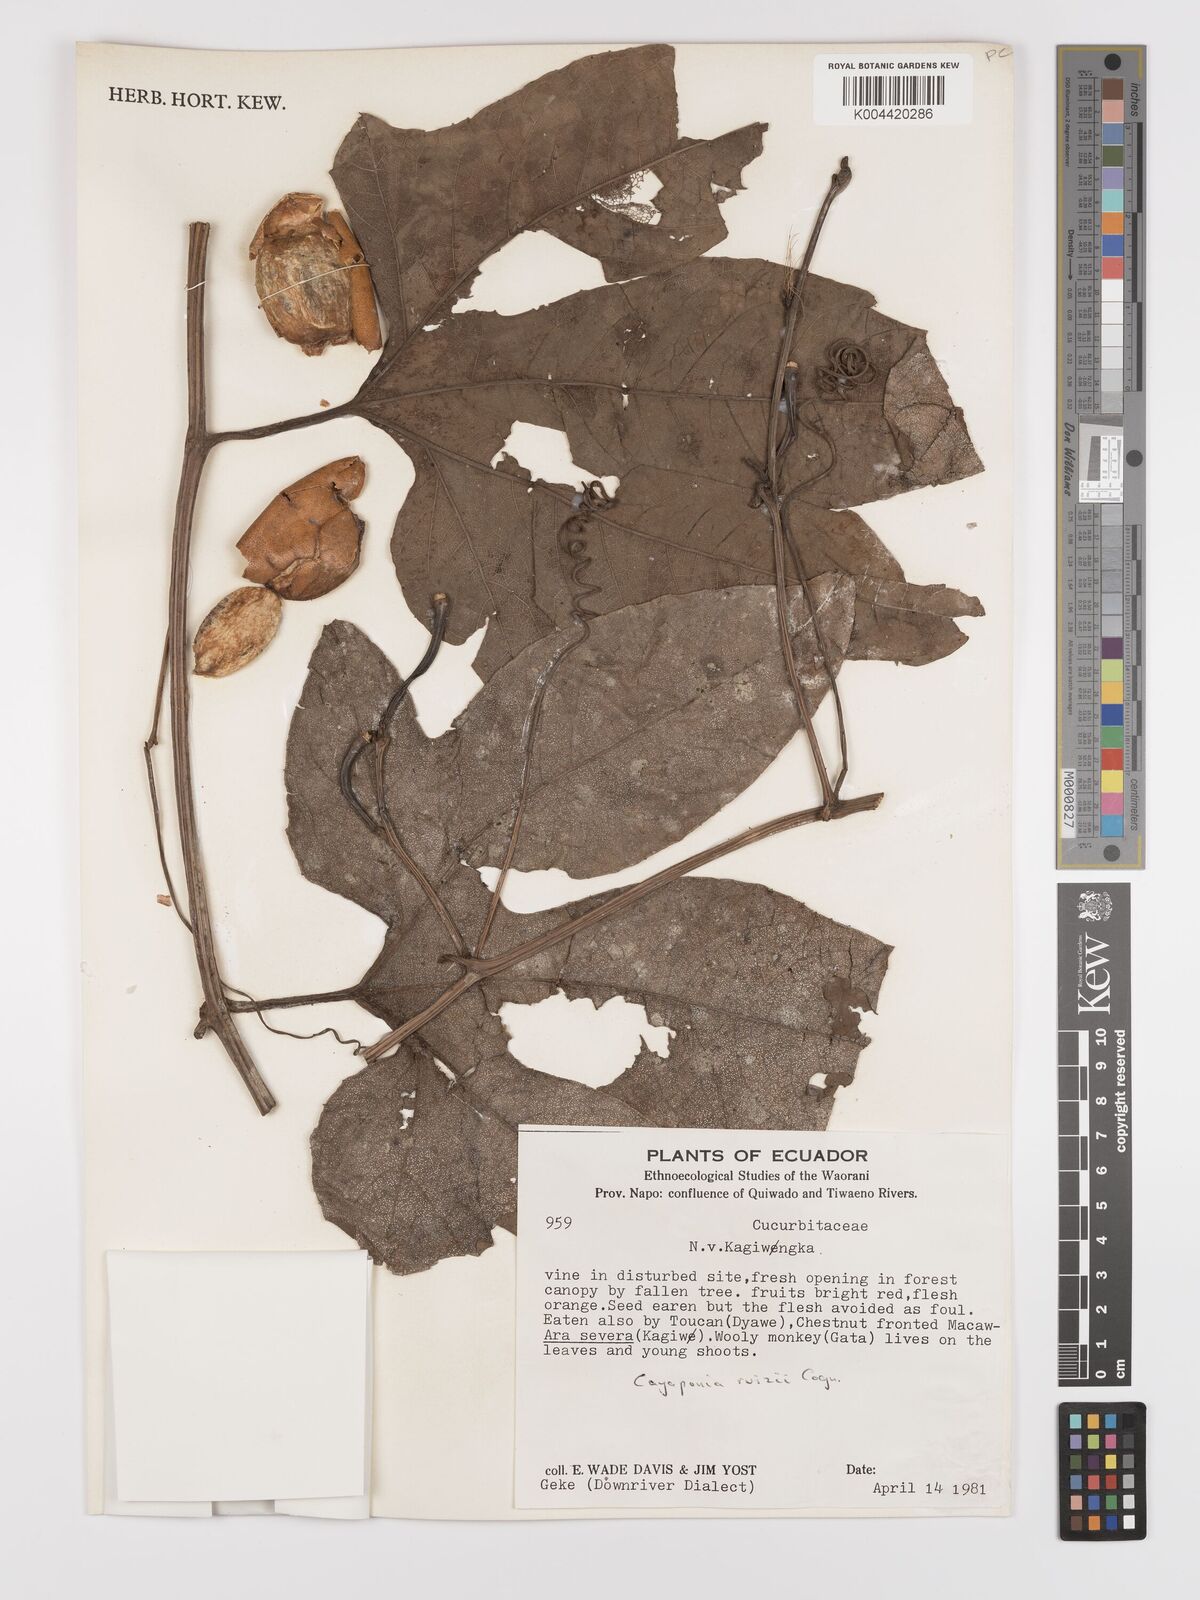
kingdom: Plantae
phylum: Tracheophyta
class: Magnoliopsida
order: Cucurbitales
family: Cucurbitaceae
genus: Cayaponia
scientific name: Cayaponia ruizii
